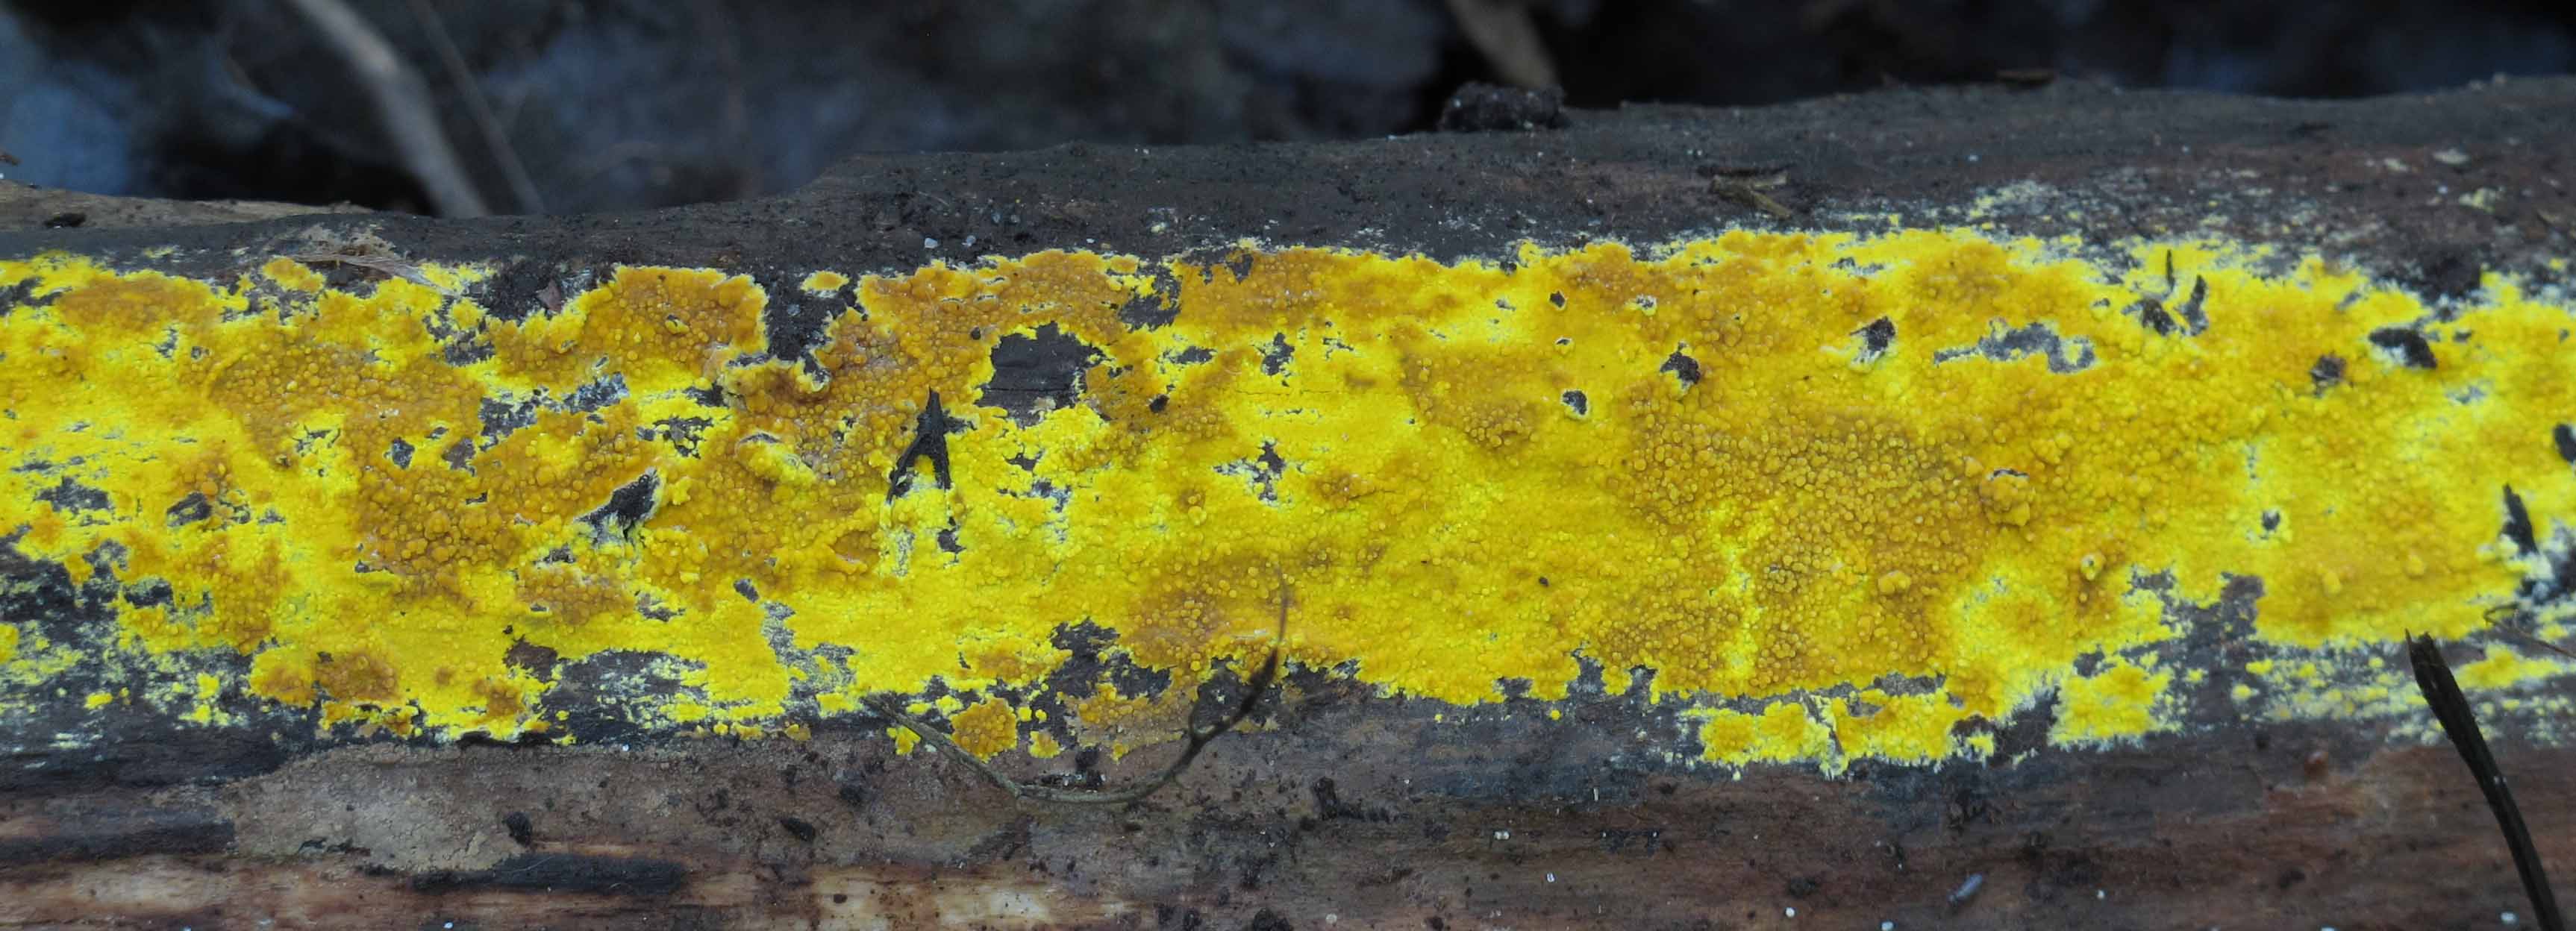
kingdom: Fungi
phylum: Basidiomycota
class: Agaricomycetes
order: Polyporales
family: Meruliaceae
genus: Phlebiodontia
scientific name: Phlebiodontia subochracea
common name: svovl-åresvamp
